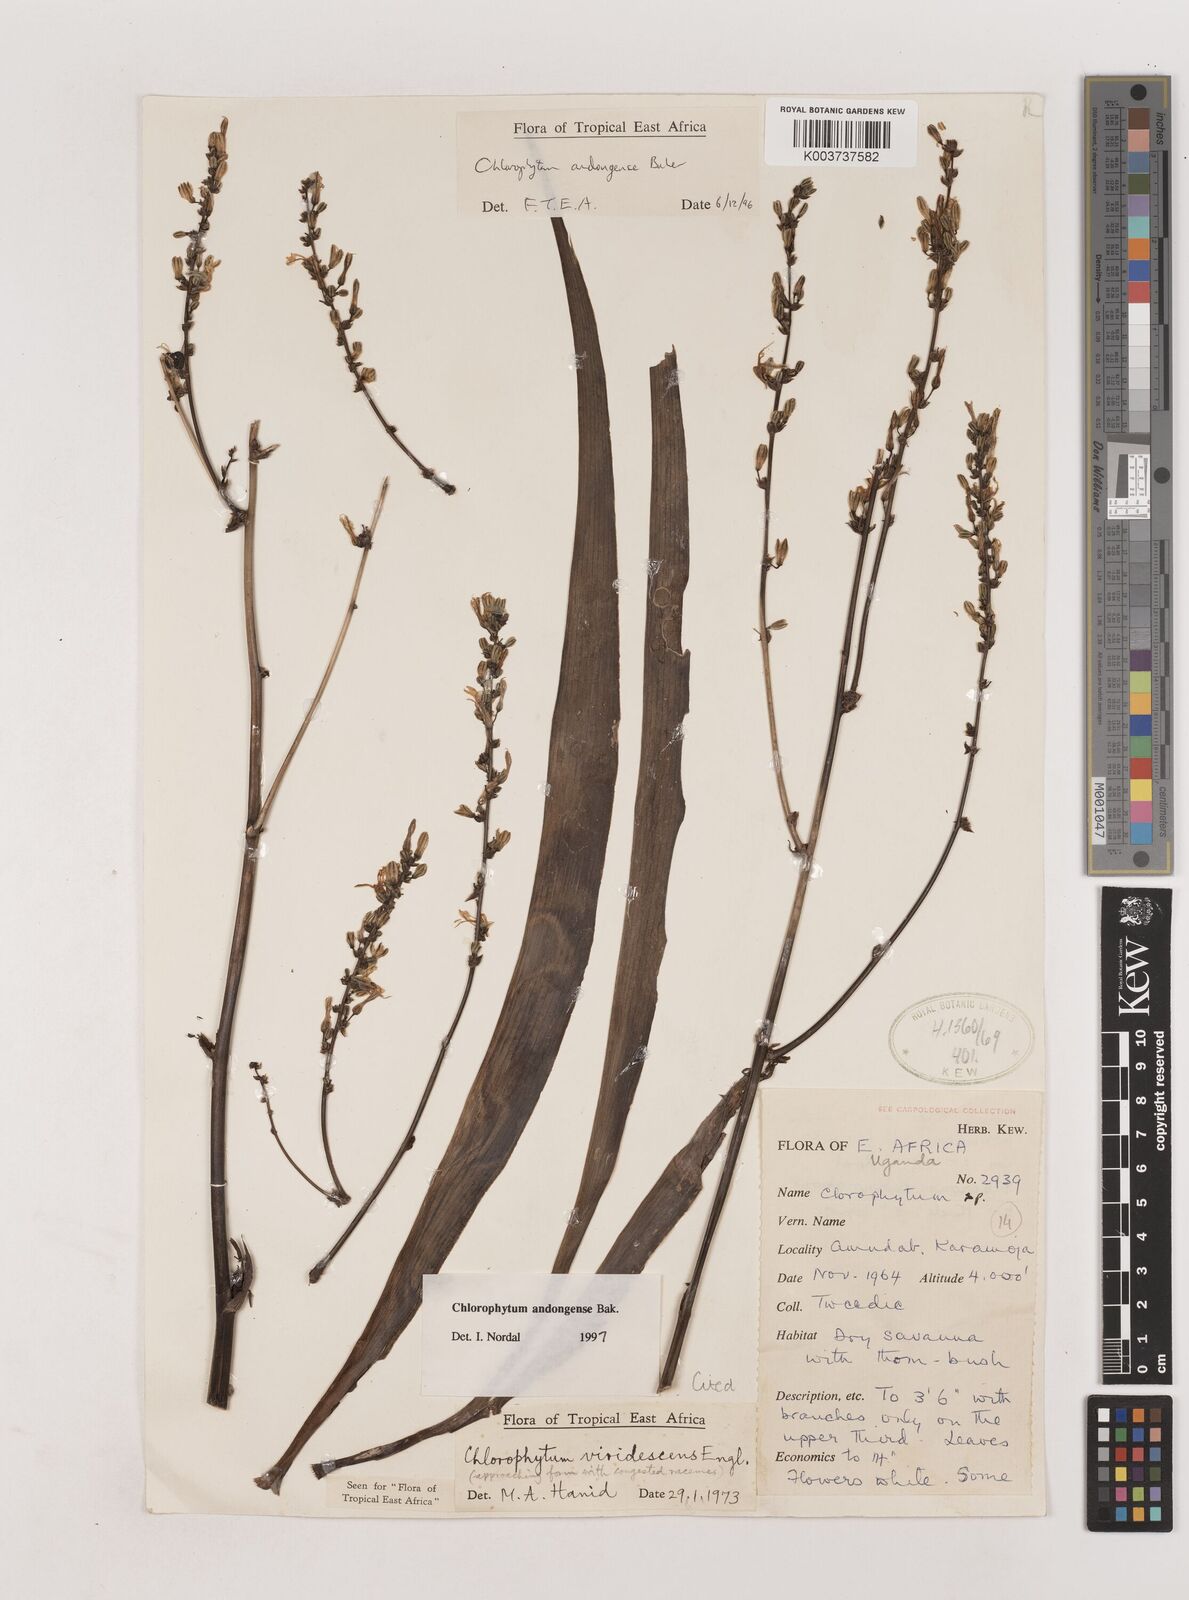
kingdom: Plantae
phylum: Tracheophyta
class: Liliopsida
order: Asparagales
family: Asparagaceae
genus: Chlorophytum
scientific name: Chlorophytum andongense
